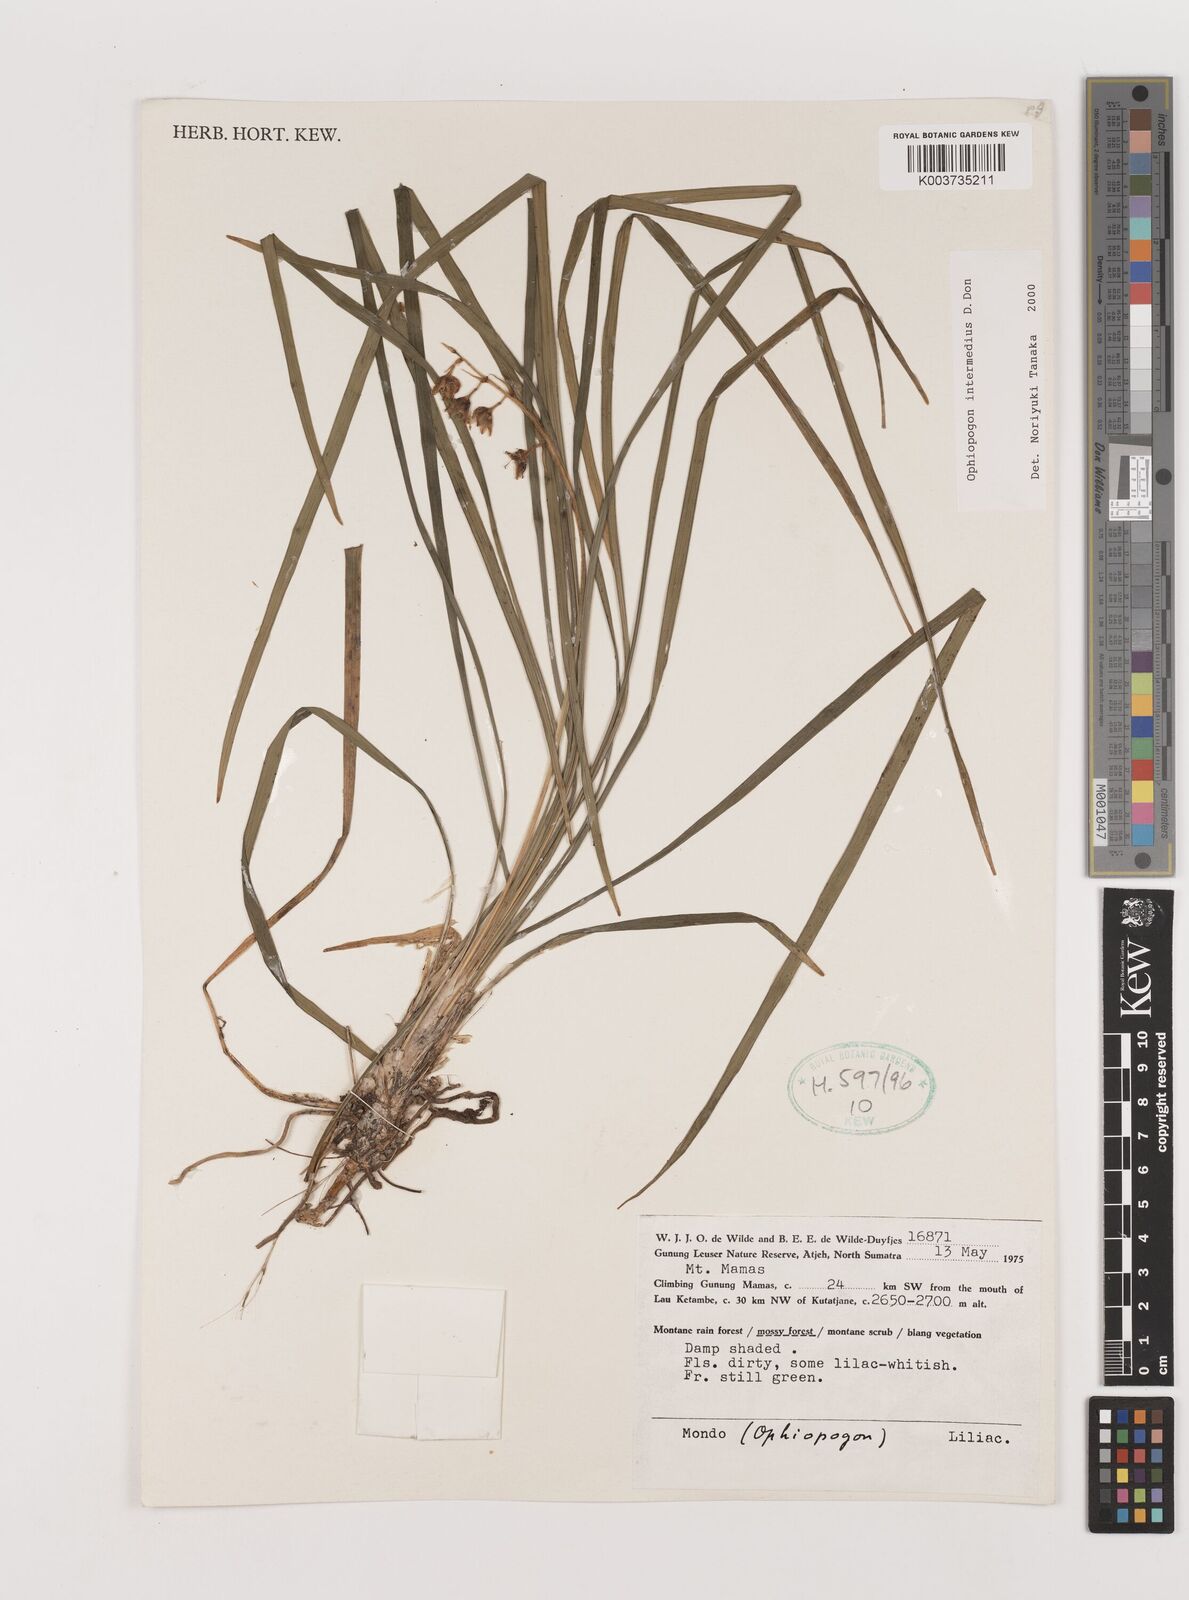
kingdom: Plantae
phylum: Tracheophyta
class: Liliopsida
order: Asparagales
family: Asparagaceae
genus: Ophiopogon
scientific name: Ophiopogon intermedius
